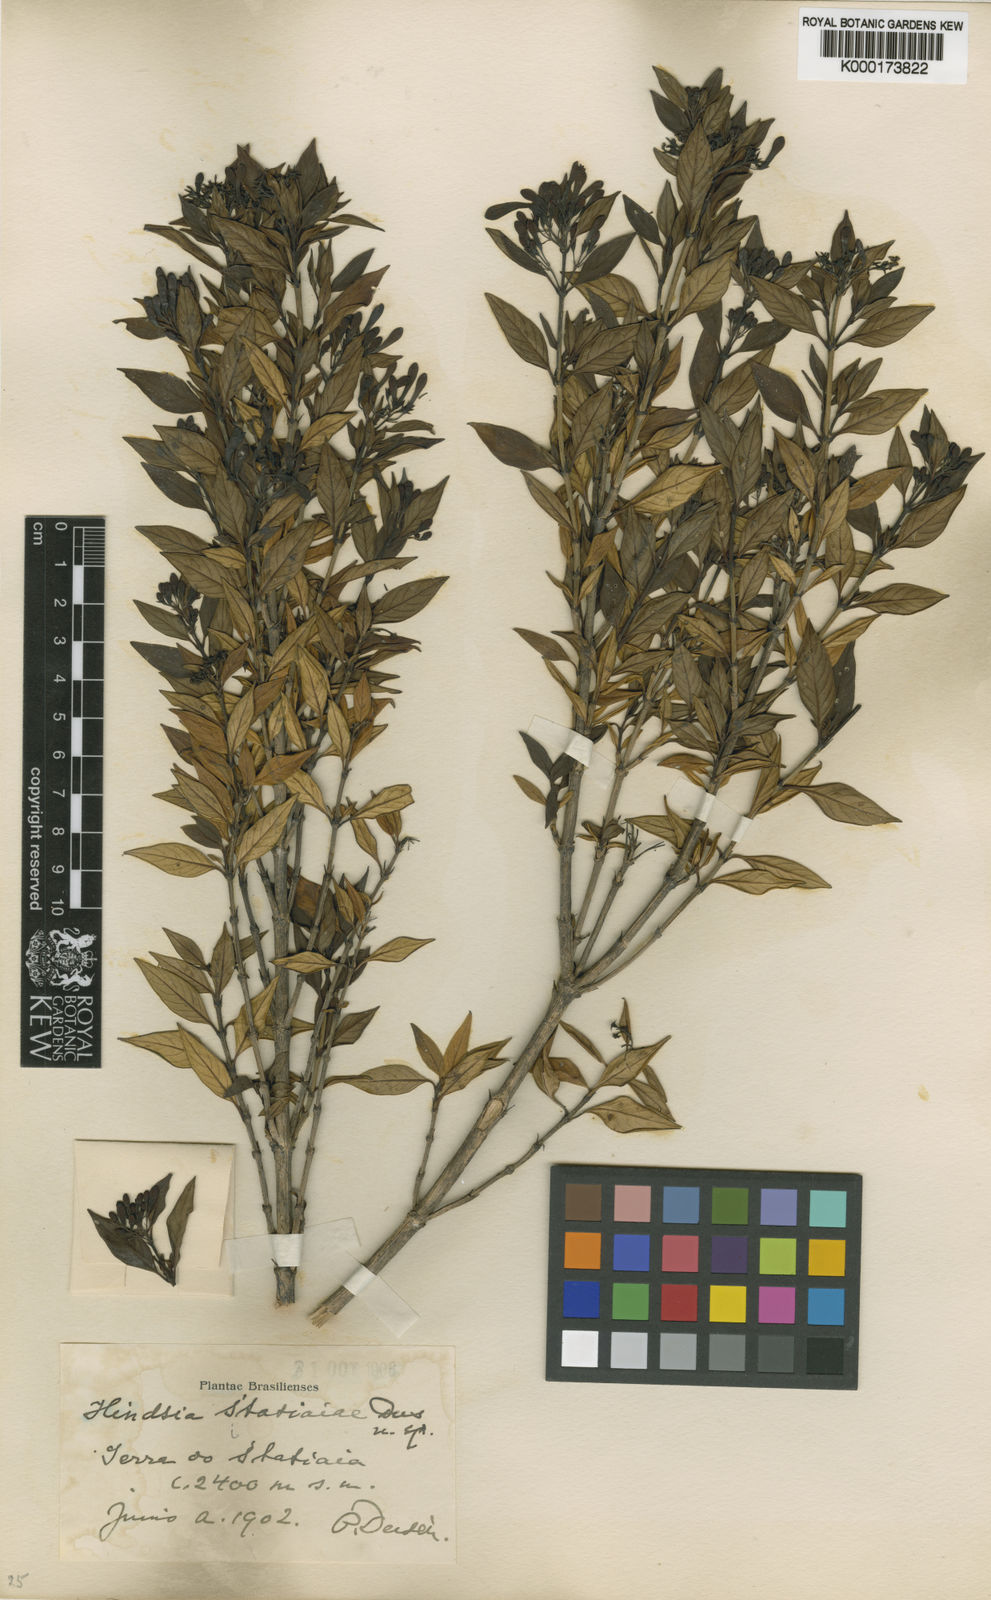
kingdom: Plantae
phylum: Tracheophyta
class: Magnoliopsida
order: Gentianales
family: Rubiaceae
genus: Hindsia
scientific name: Hindsia
